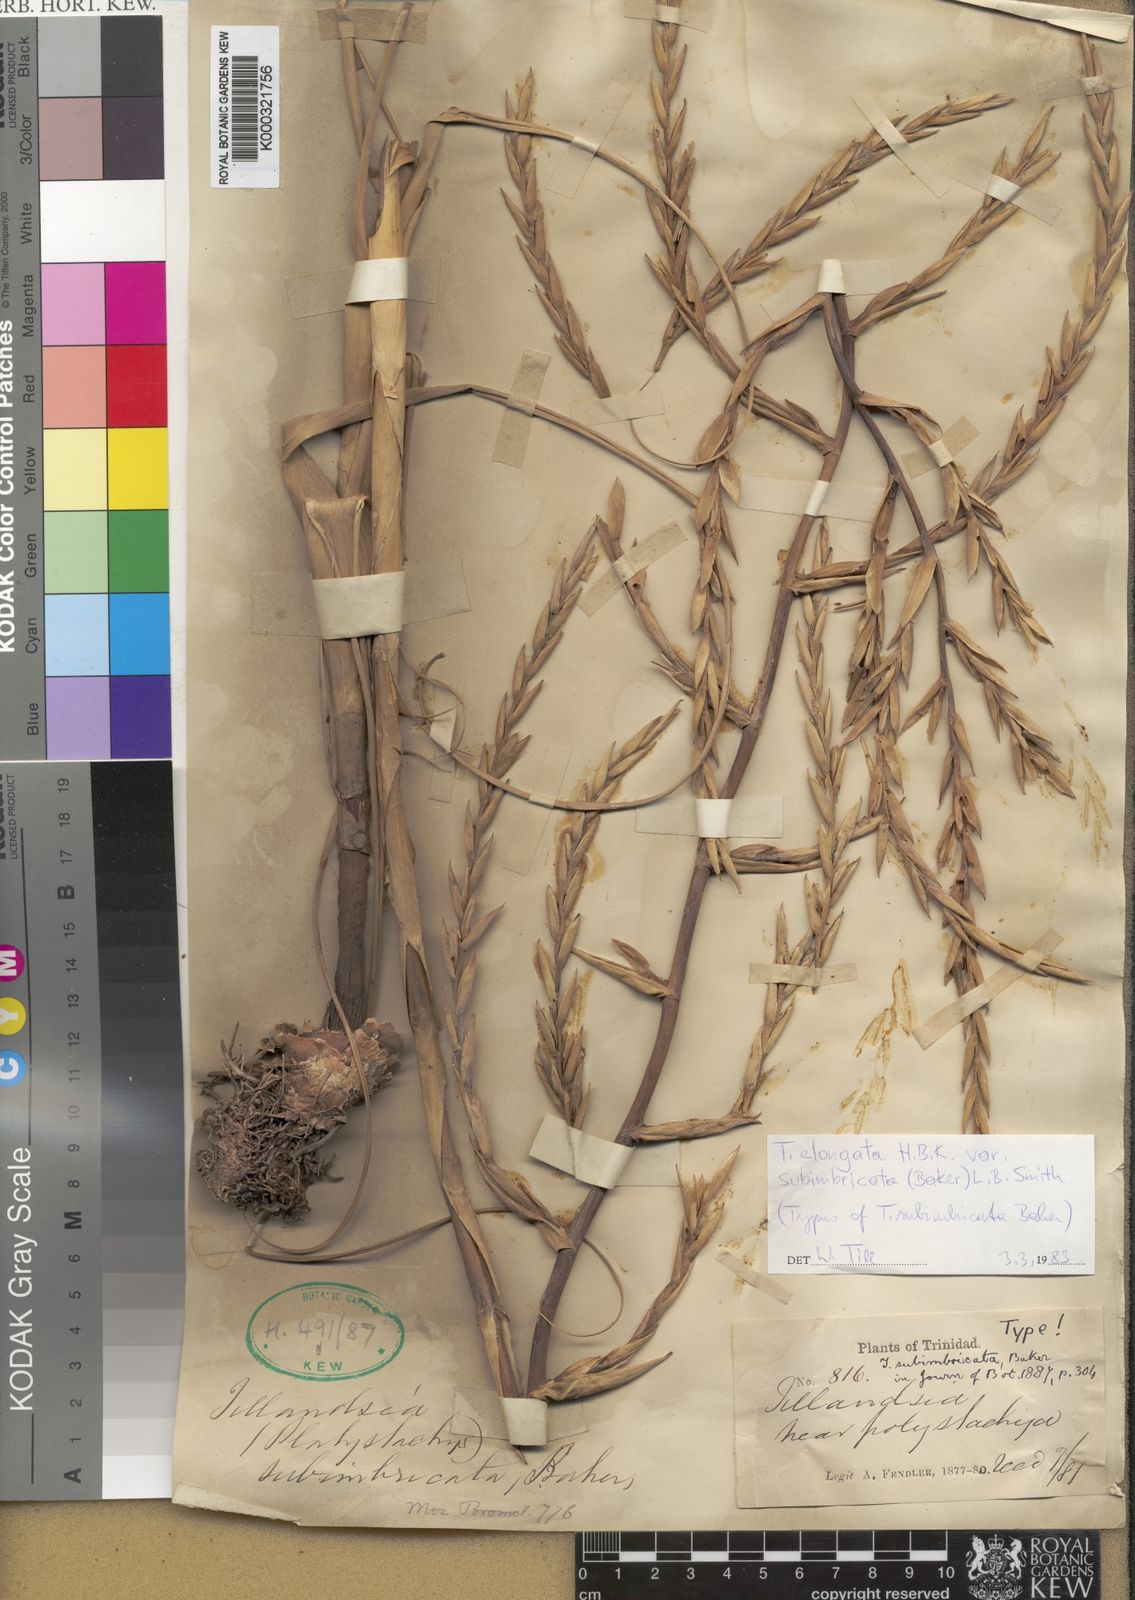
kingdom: Plantae
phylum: Tracheophyta
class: Liliopsida
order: Poales
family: Bromeliaceae
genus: Tillandsia
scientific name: Tillandsia elongata
